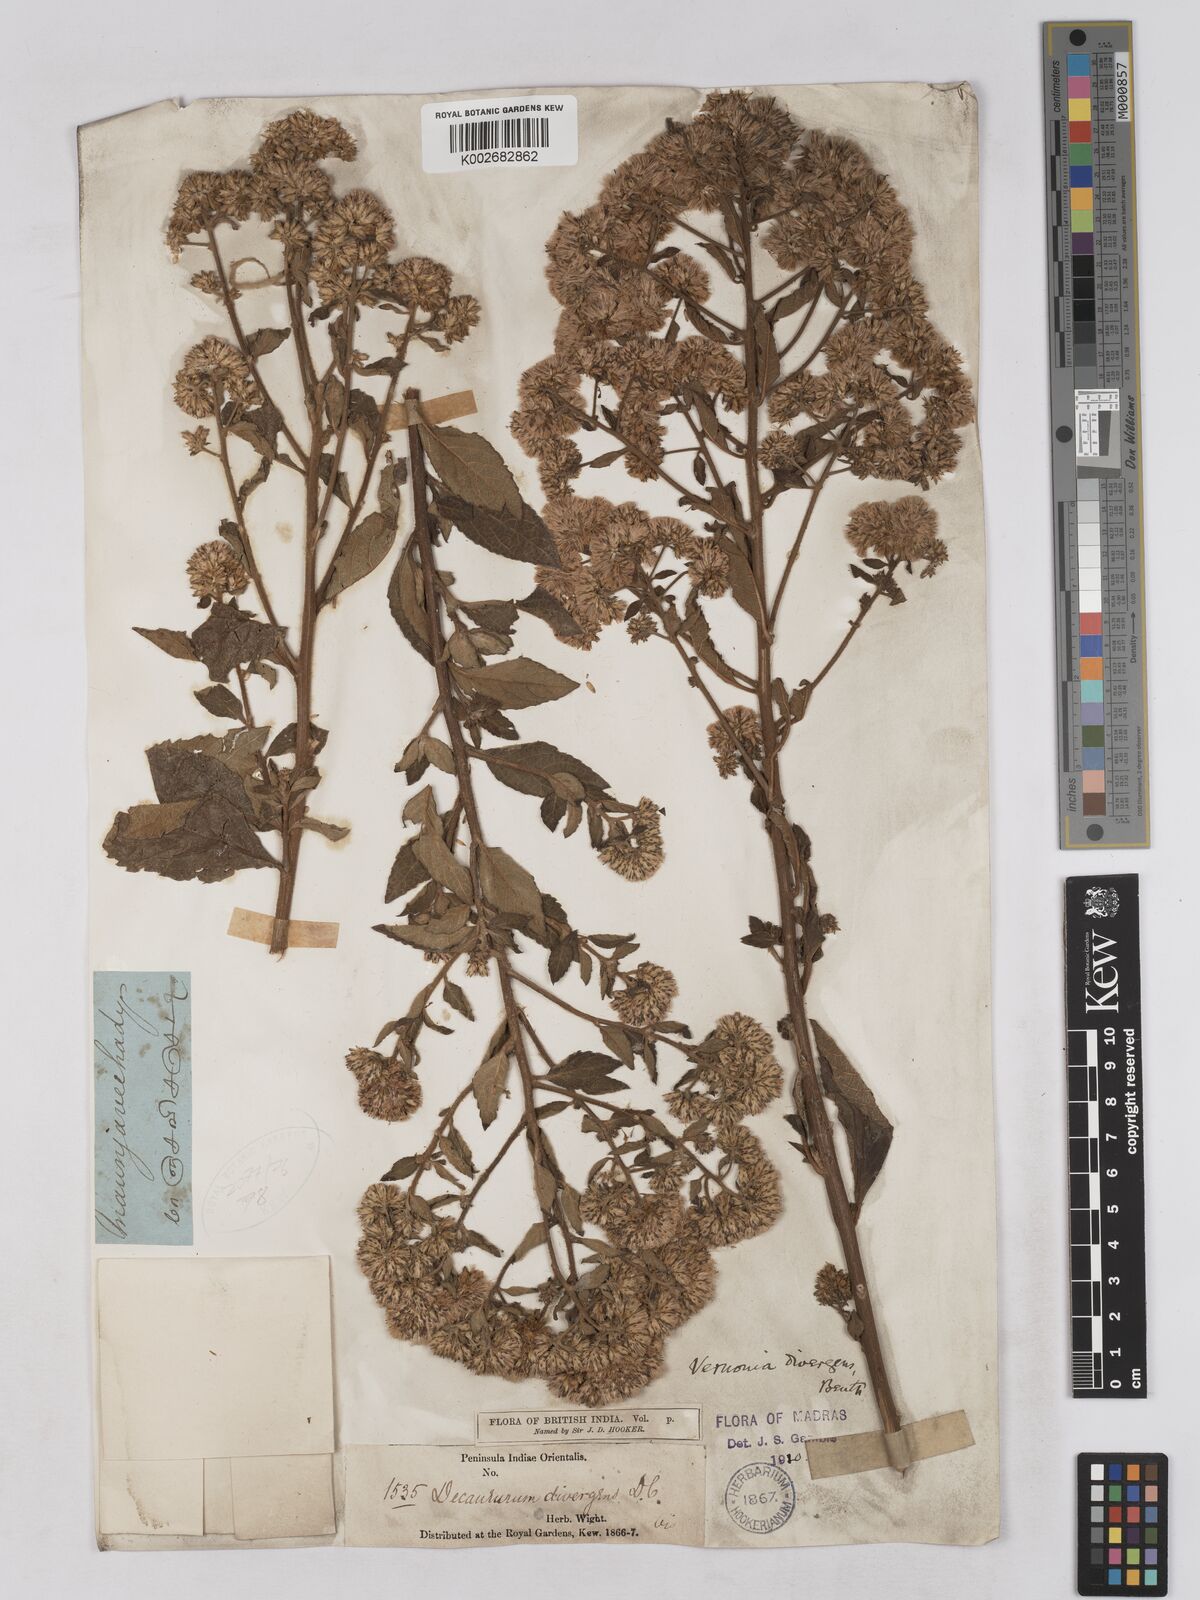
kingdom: Plantae
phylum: Tracheophyta
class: Magnoliopsida
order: Asterales
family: Asteraceae
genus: Acilepis
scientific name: Acilepis divergens
